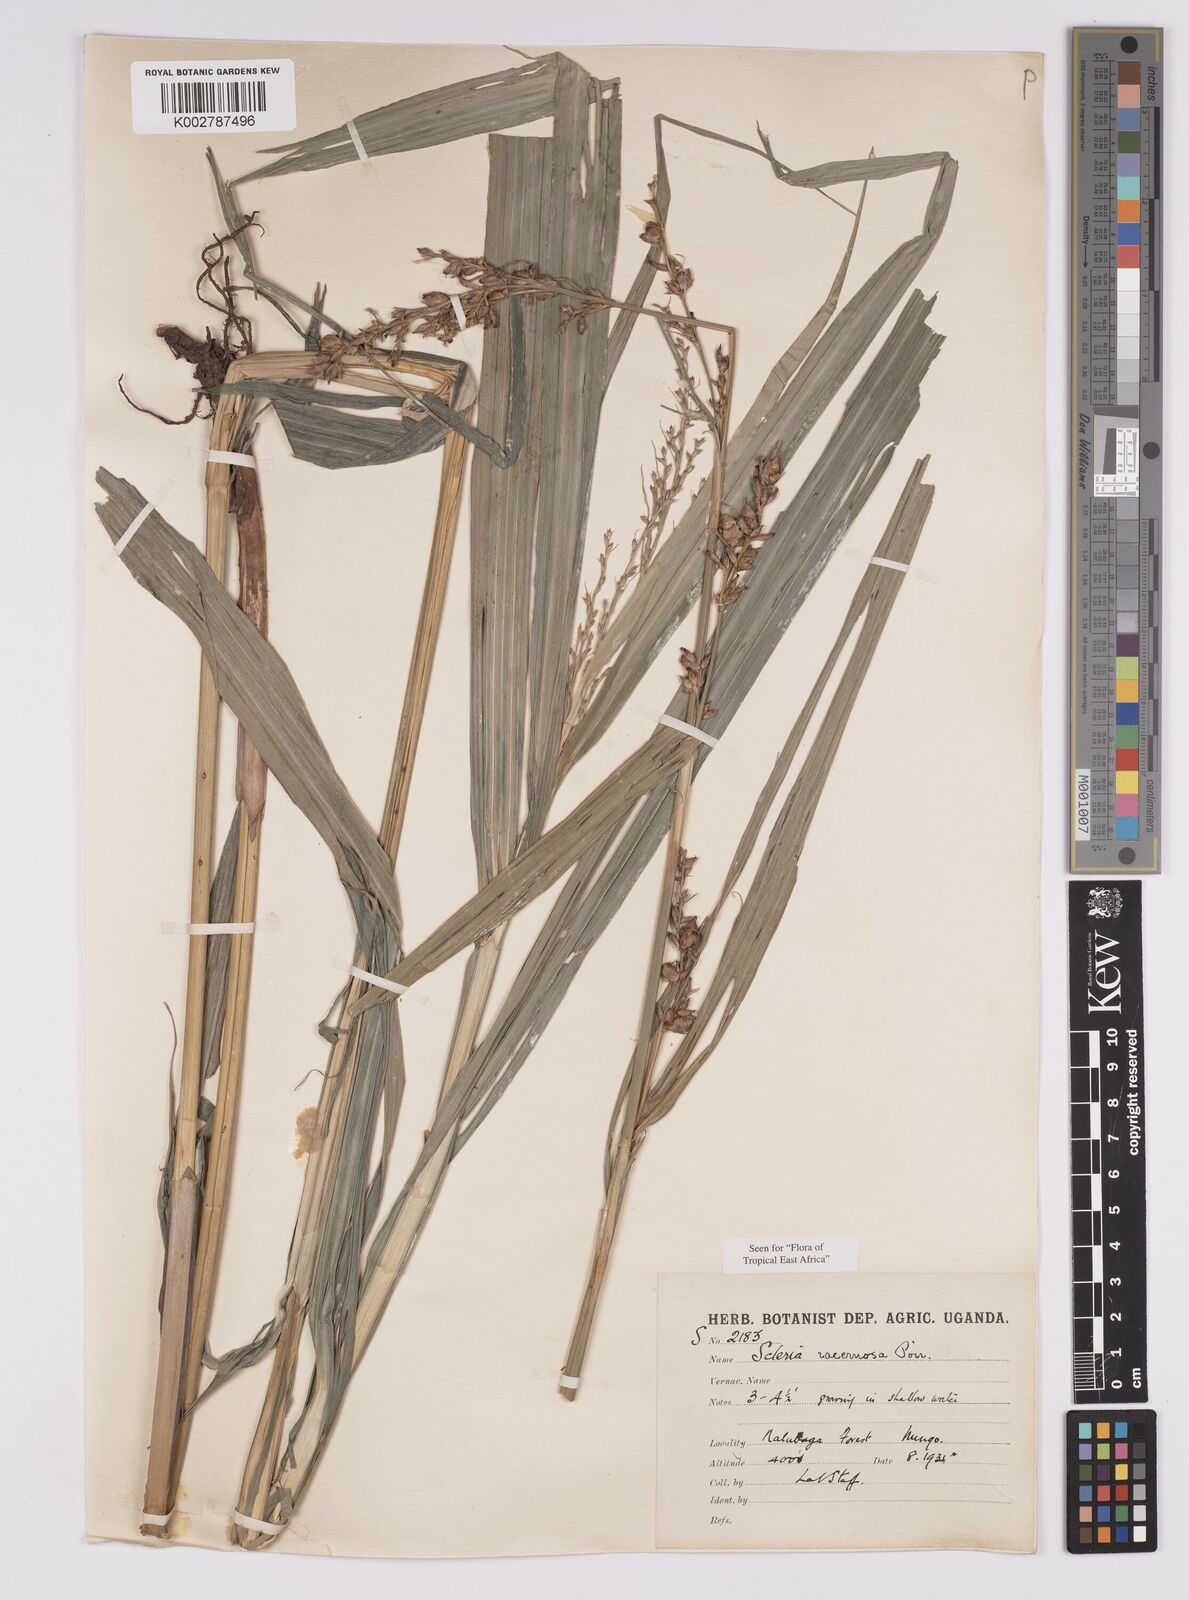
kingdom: Plantae
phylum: Tracheophyta
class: Liliopsida
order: Poales
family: Cyperaceae
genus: Scleria
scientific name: Scleria racemosa
